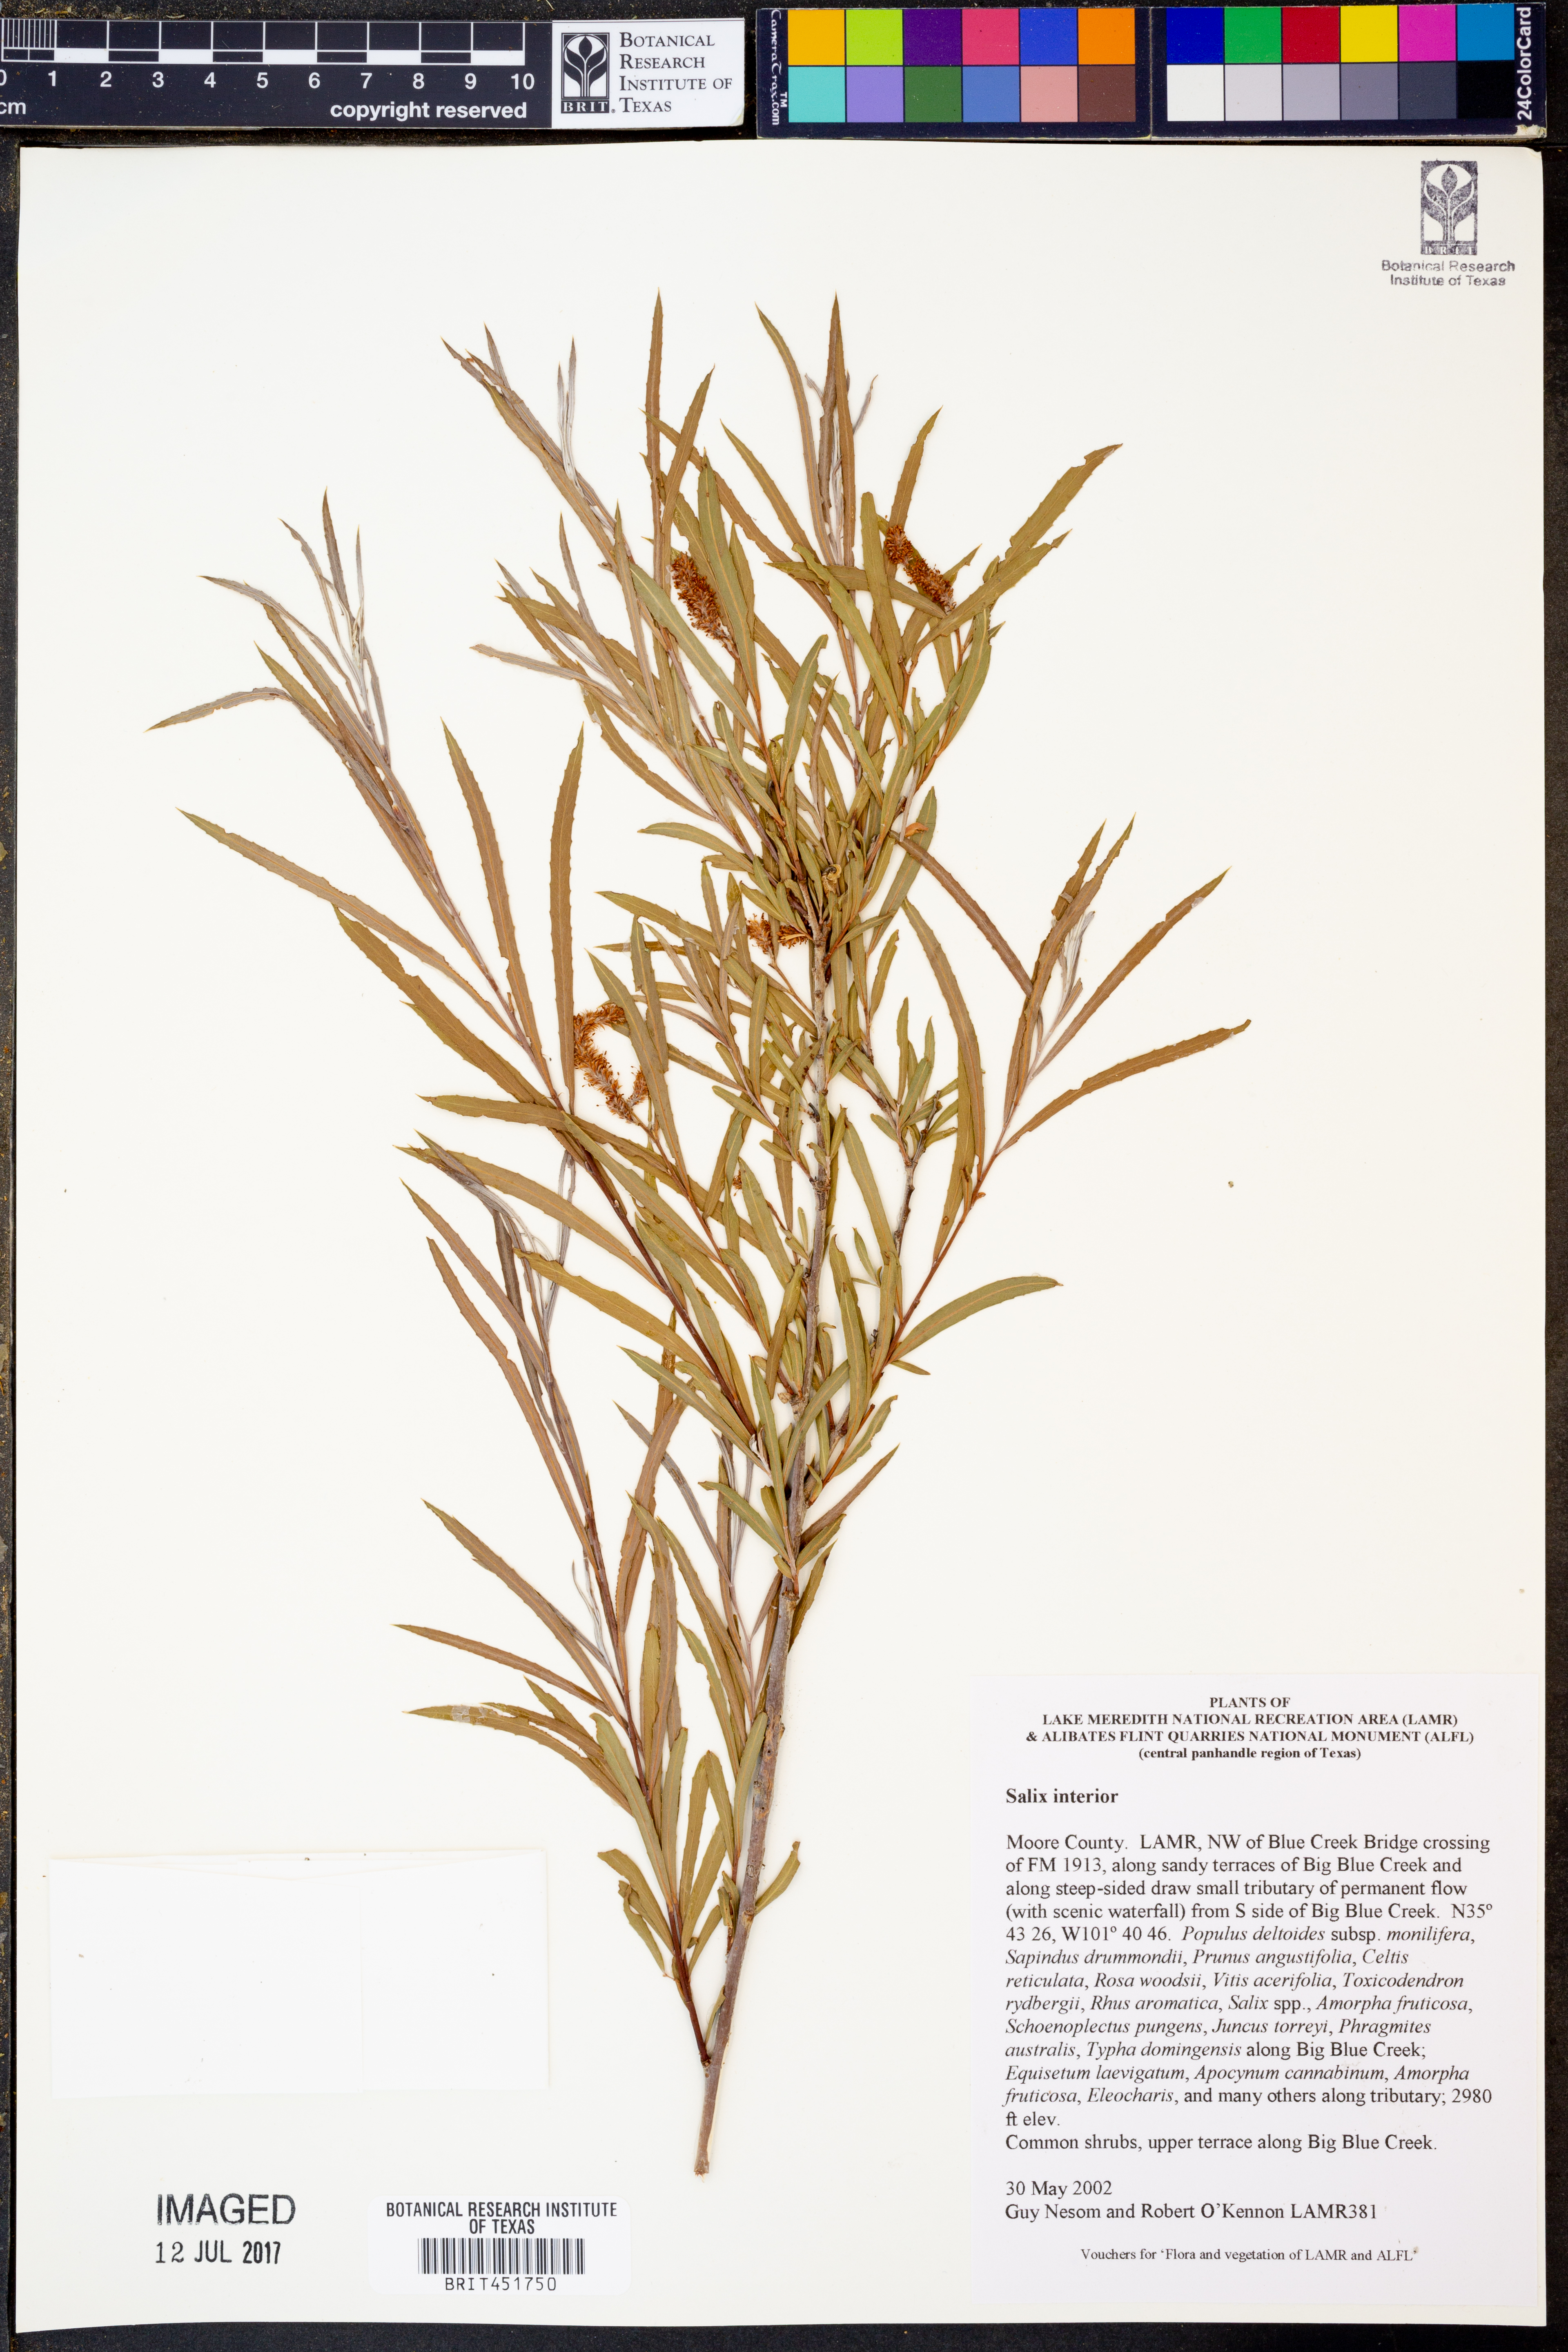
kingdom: Plantae
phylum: Tracheophyta
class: Magnoliopsida
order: Malpighiales
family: Salicaceae
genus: Salix
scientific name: Salix interior
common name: Sandbar willow
